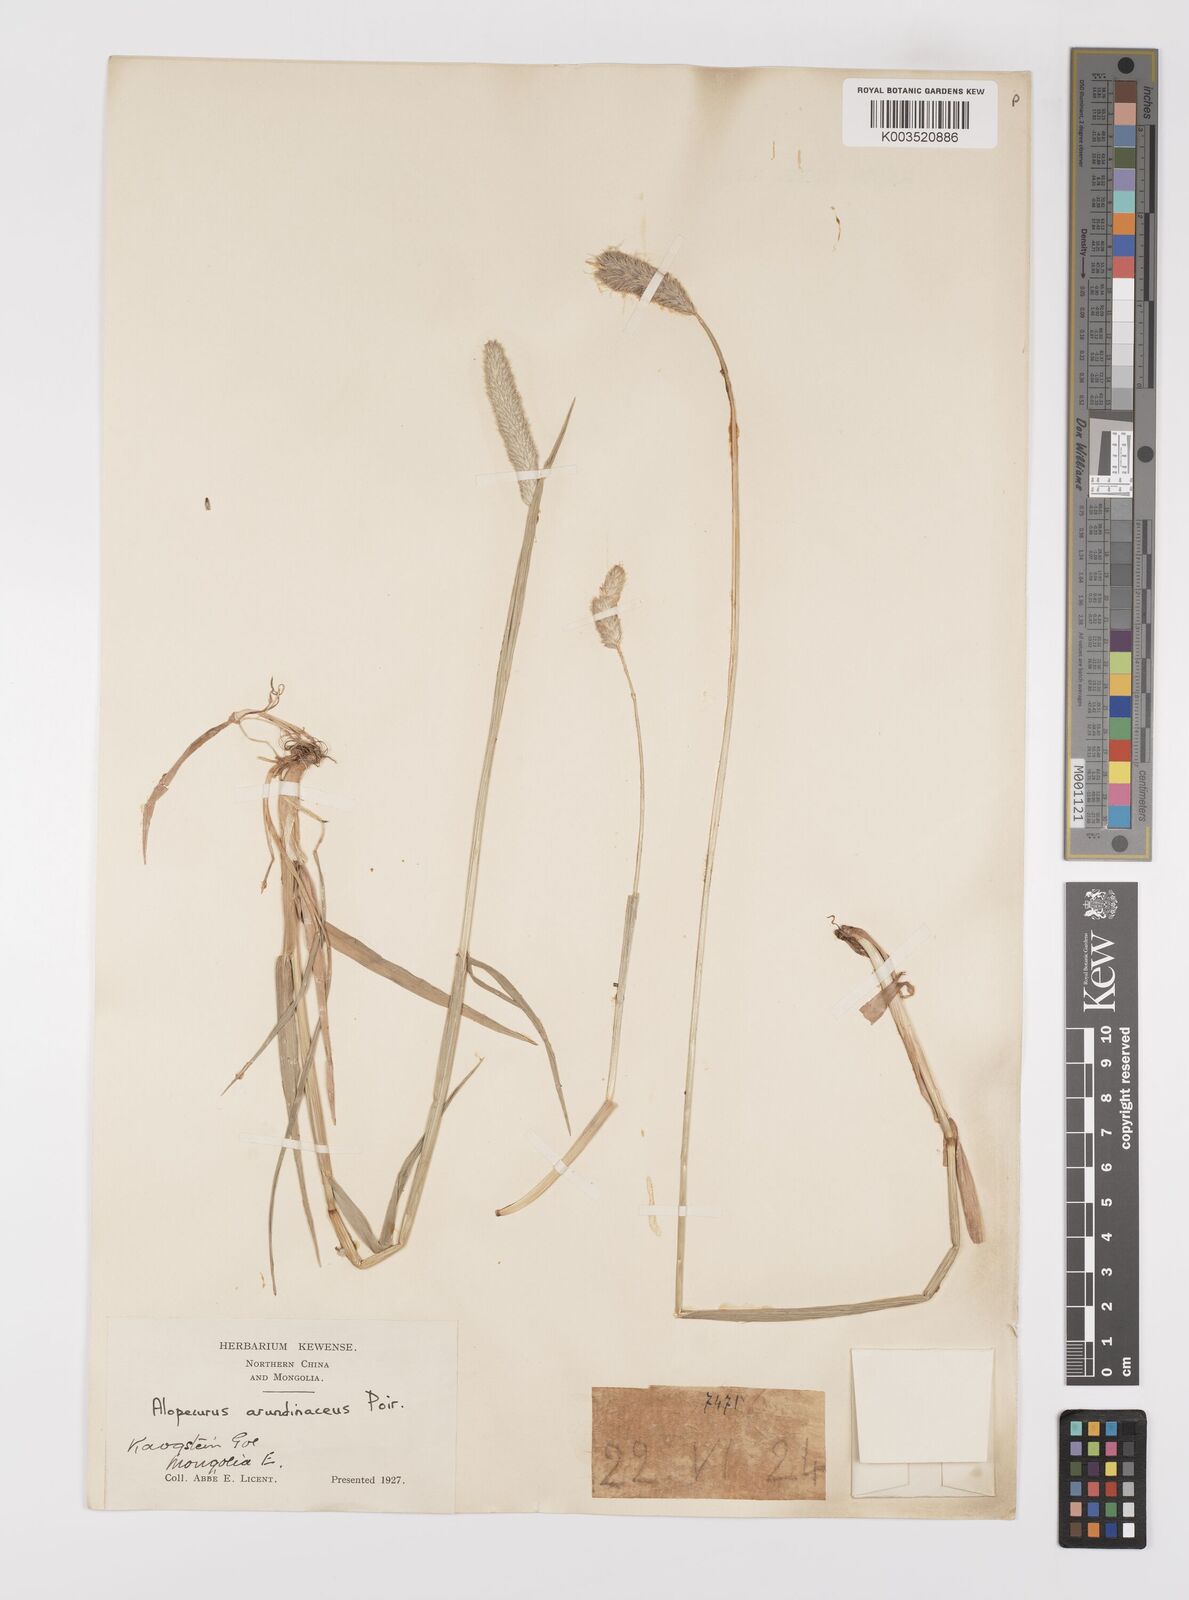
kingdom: Plantae
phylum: Tracheophyta
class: Liliopsida
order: Poales
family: Poaceae
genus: Alopecurus
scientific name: Alopecurus arundinaceus
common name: Creeping meadow foxtail
